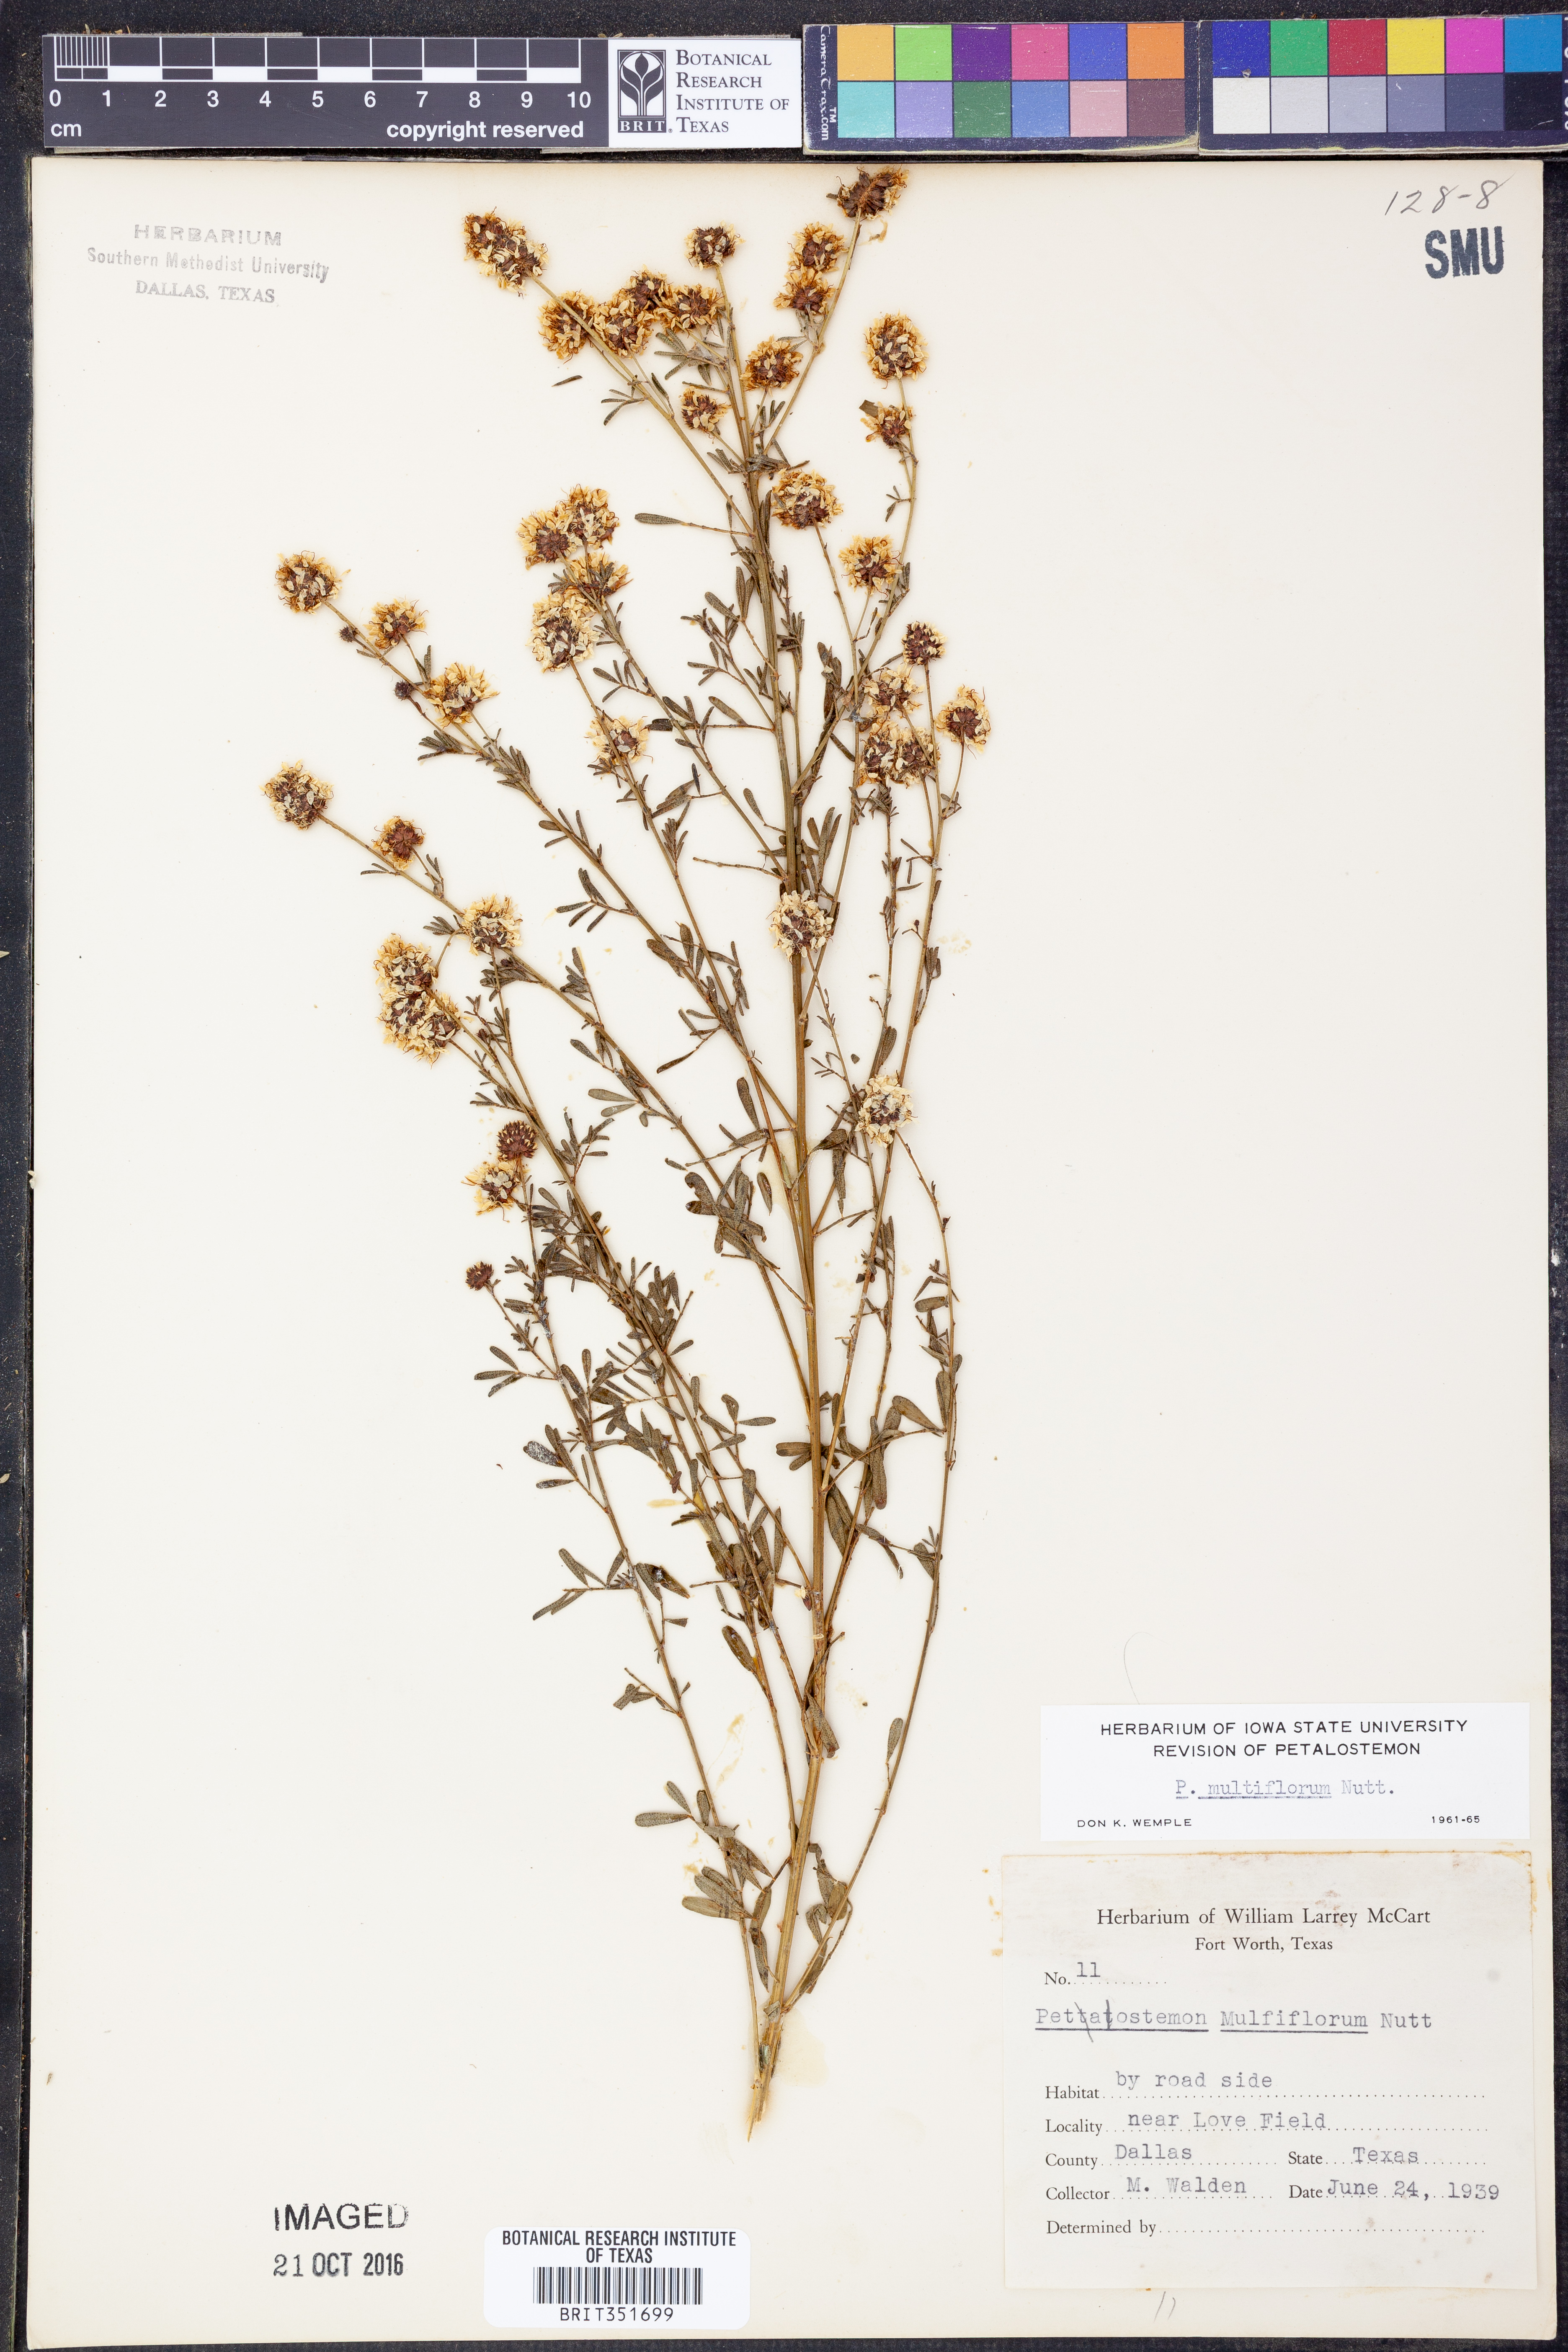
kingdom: Plantae
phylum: Tracheophyta
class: Magnoliopsida
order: Fabales
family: Fabaceae
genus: Dalea
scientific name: Dalea multiflora
